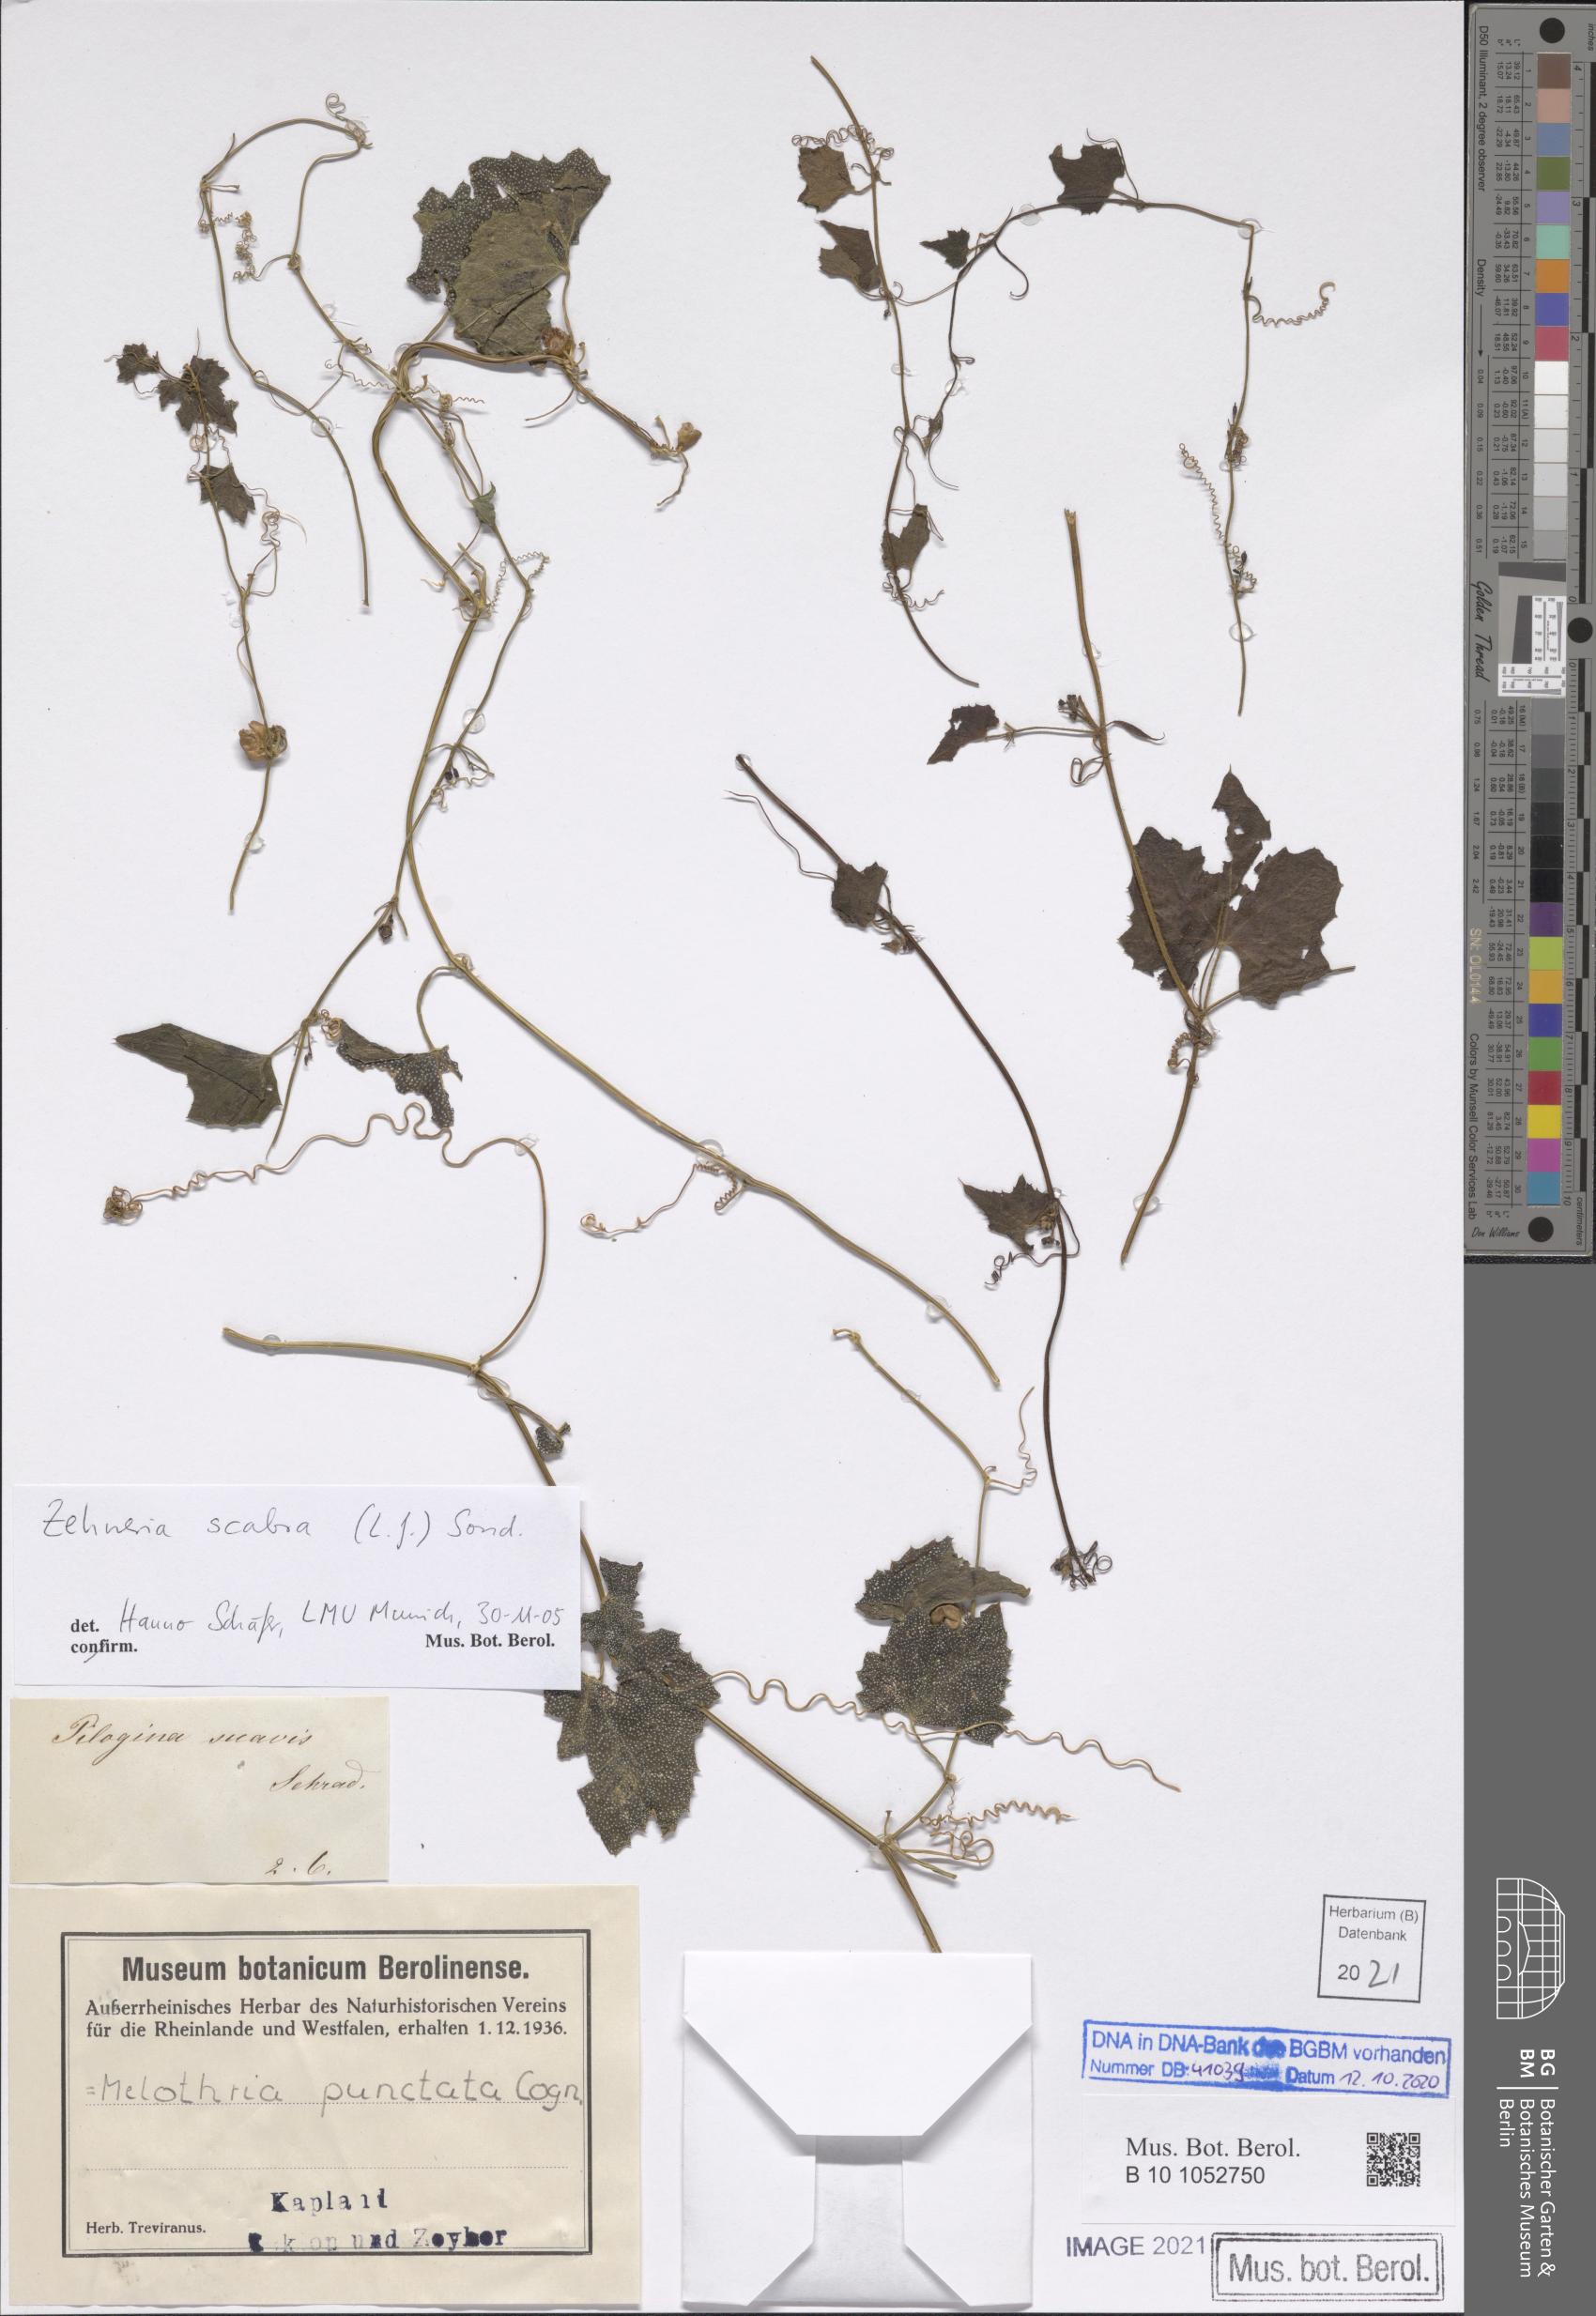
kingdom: Plantae
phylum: Tracheophyta
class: Magnoliopsida
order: Cucurbitales
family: Cucurbitaceae
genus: Zehneria
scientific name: Zehneria scabra
